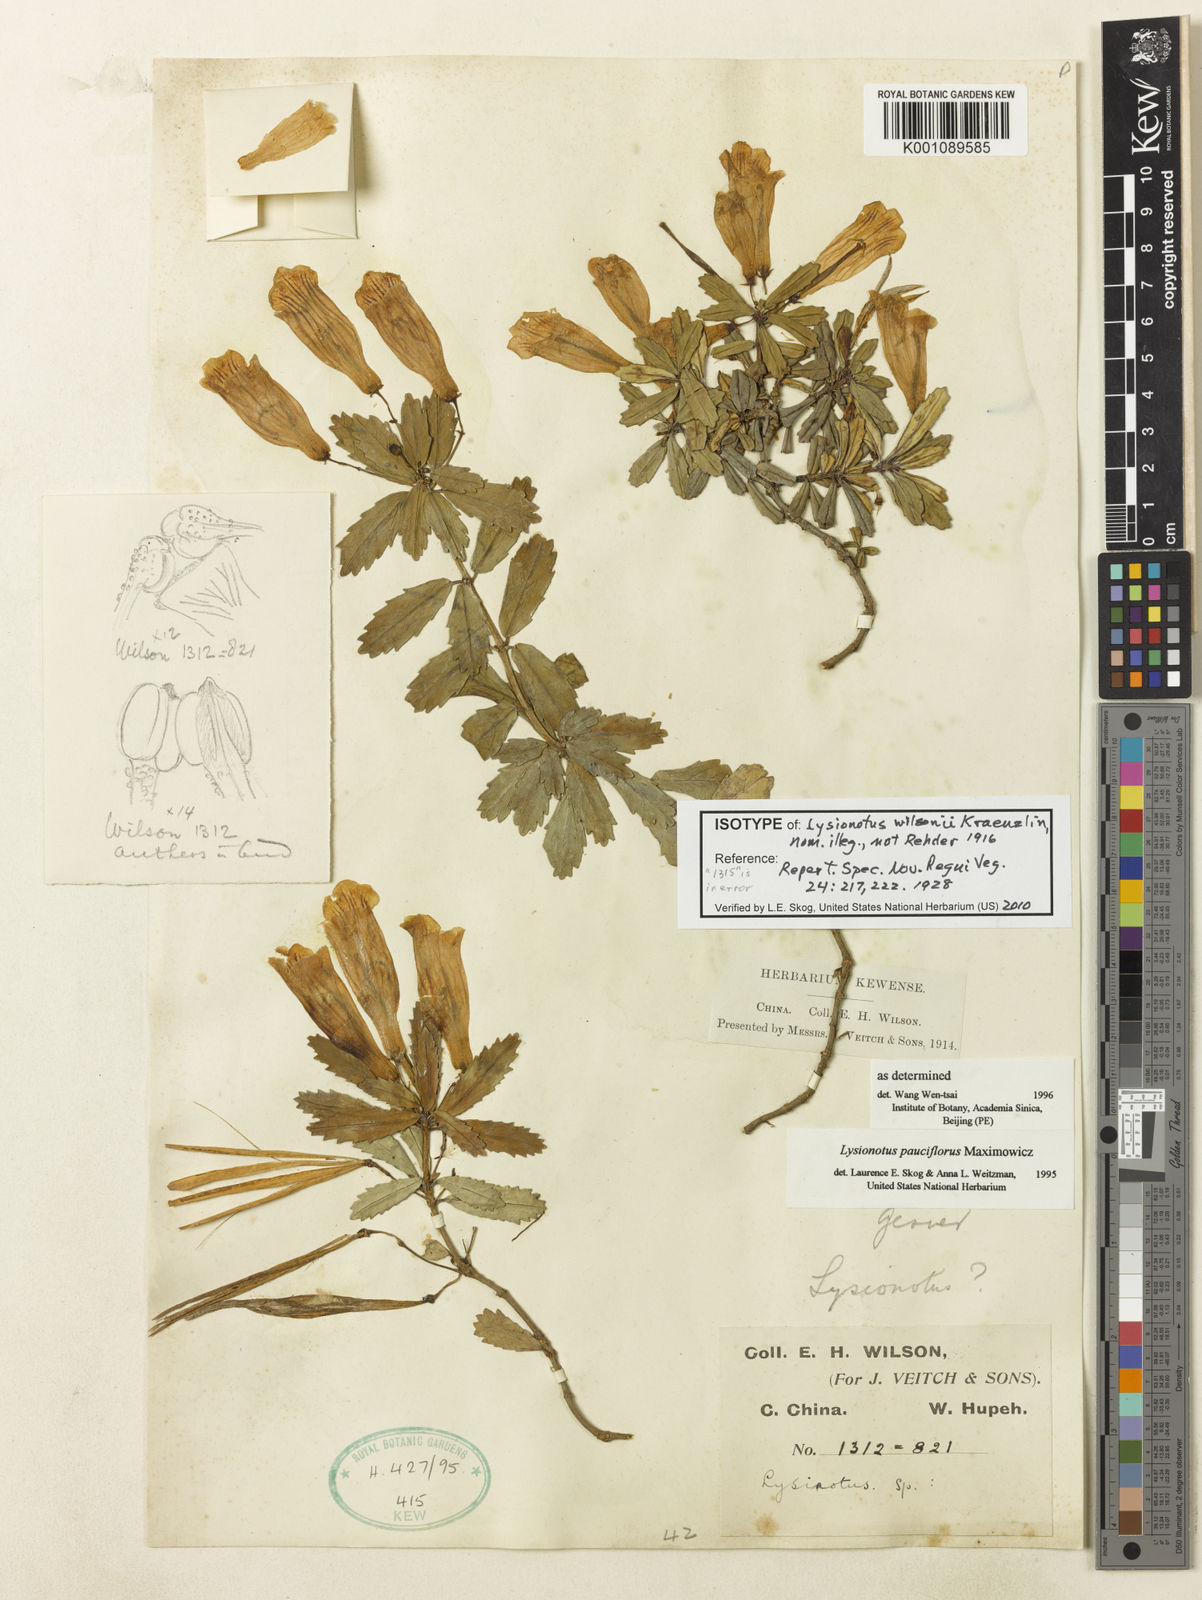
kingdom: Plantae
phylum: Tracheophyta
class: Magnoliopsida
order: Lamiales
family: Gesneriaceae
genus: Lysionotus
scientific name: Lysionotus pauciflorus
